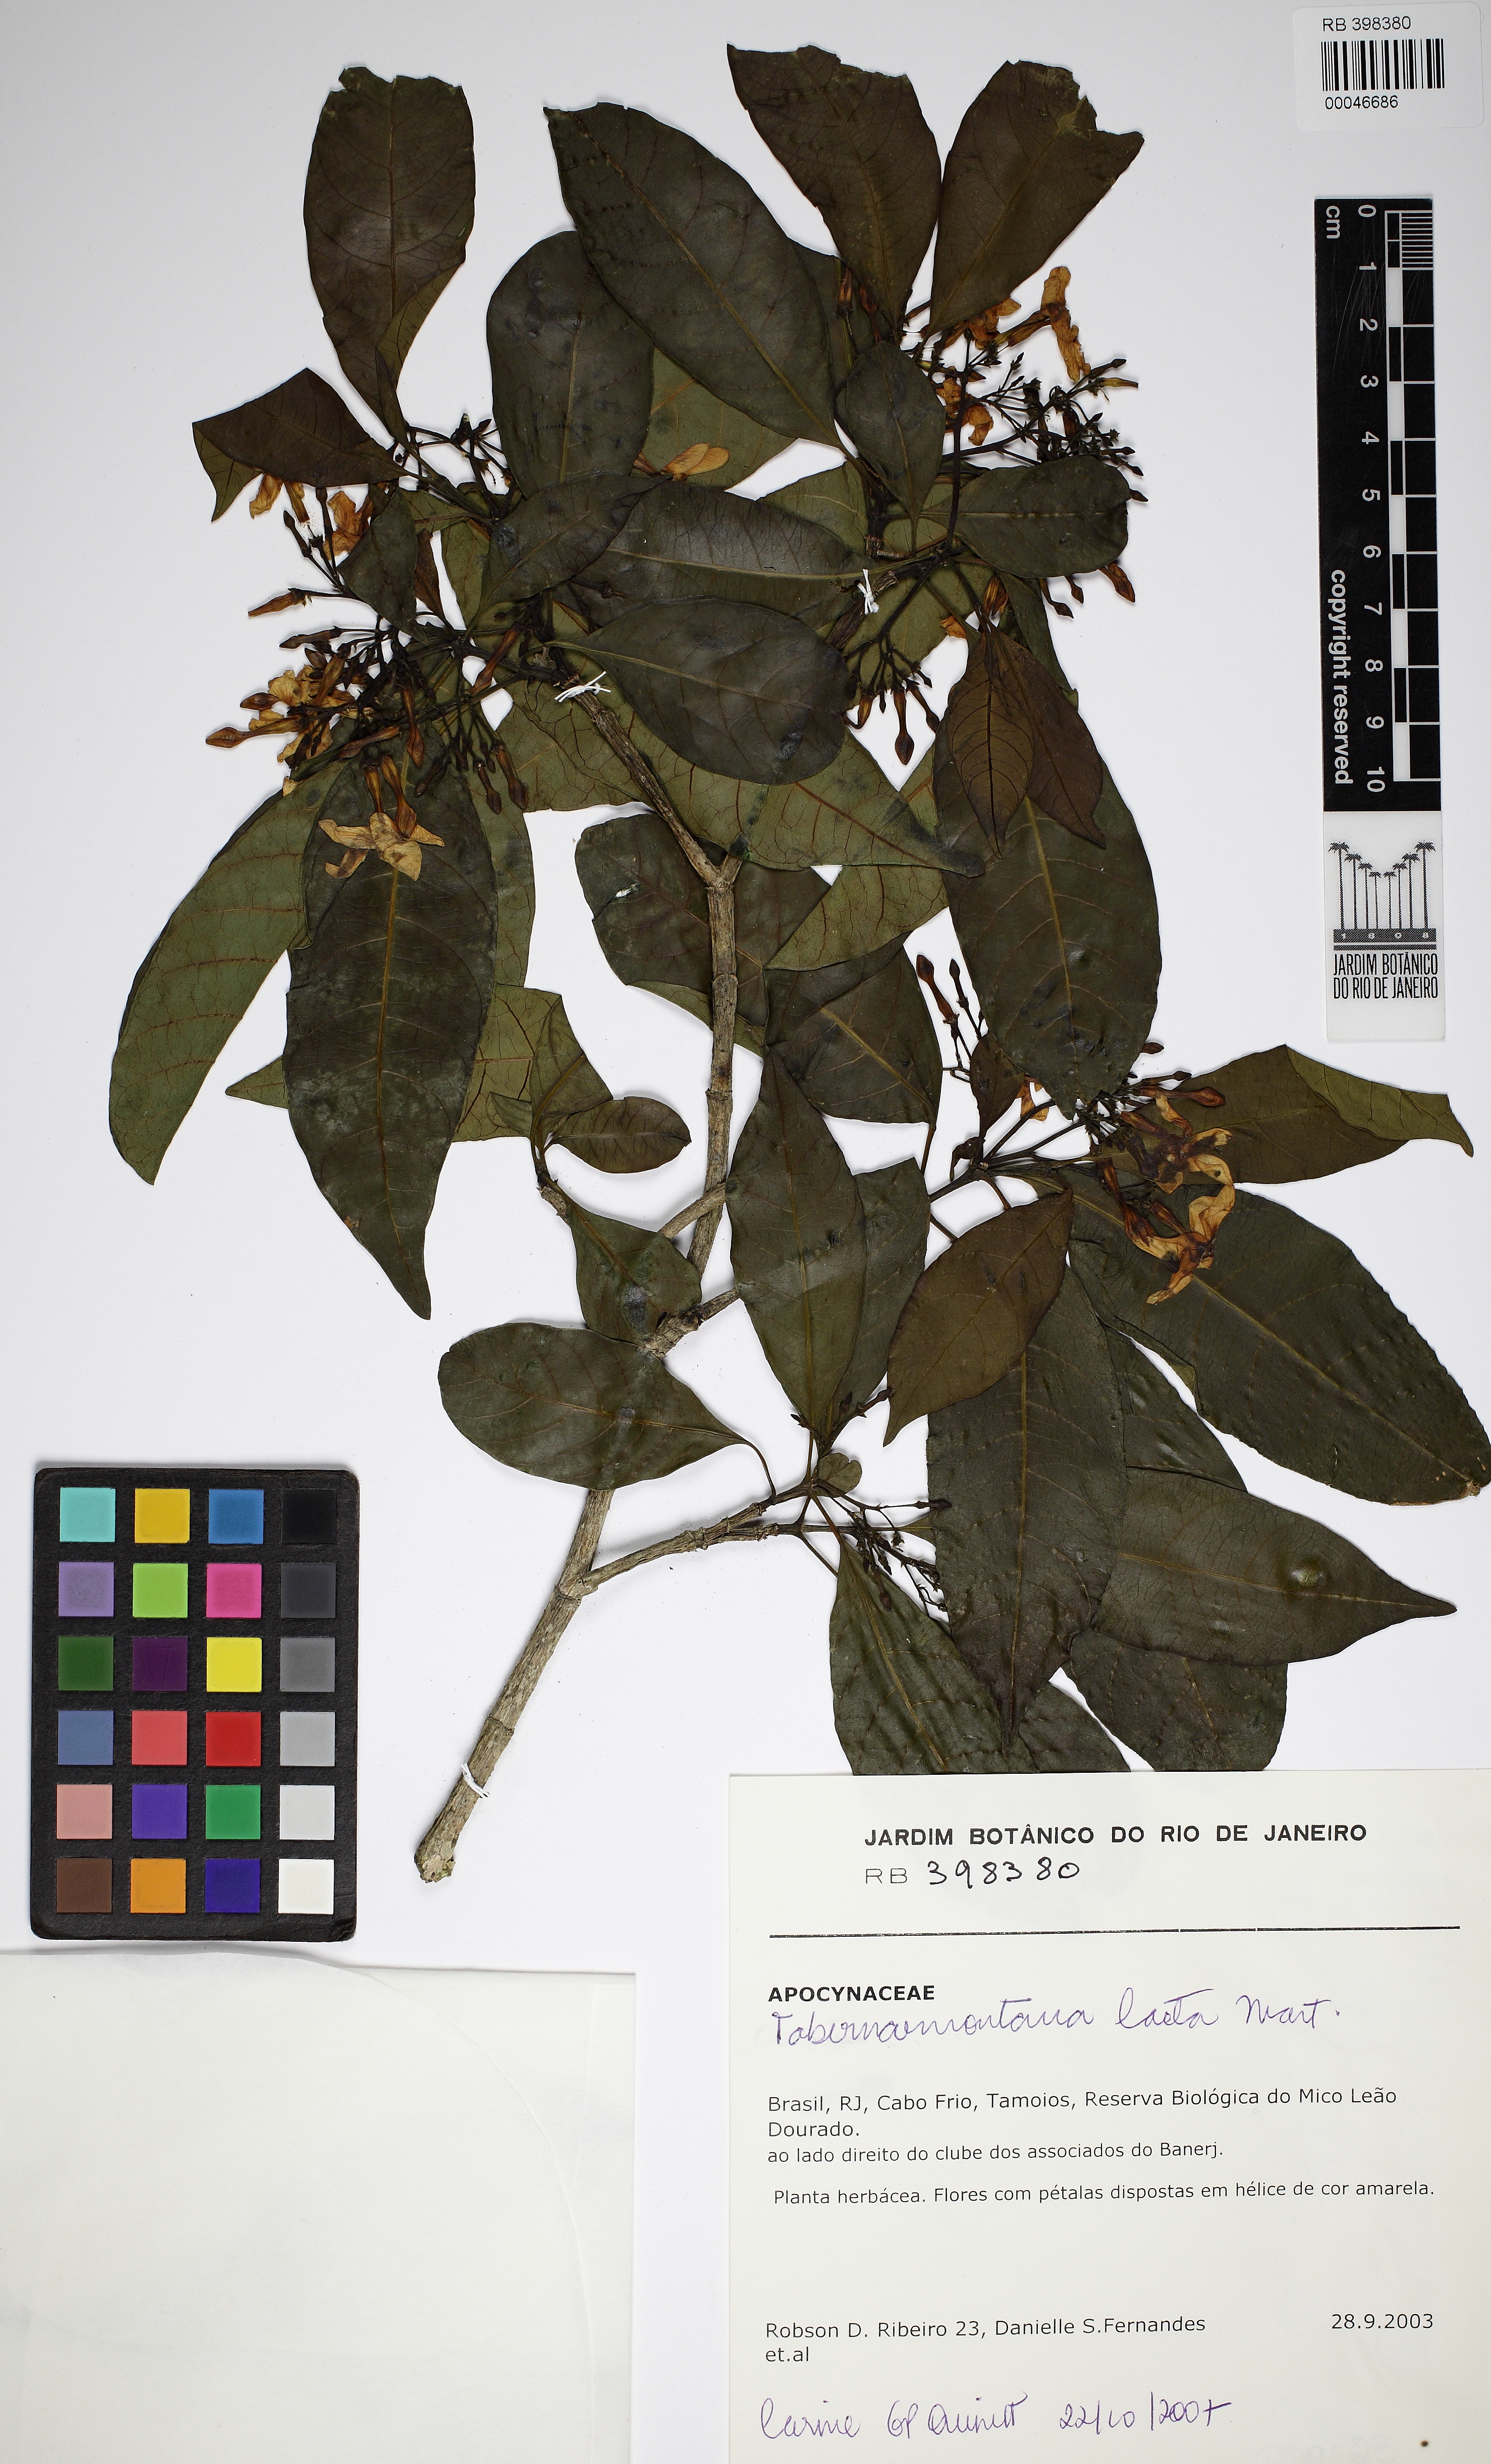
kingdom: Plantae
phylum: Tracheophyta
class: Magnoliopsida
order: Gentianales
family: Apocynaceae
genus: Tabernaemontana
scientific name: Tabernaemontana laeta
